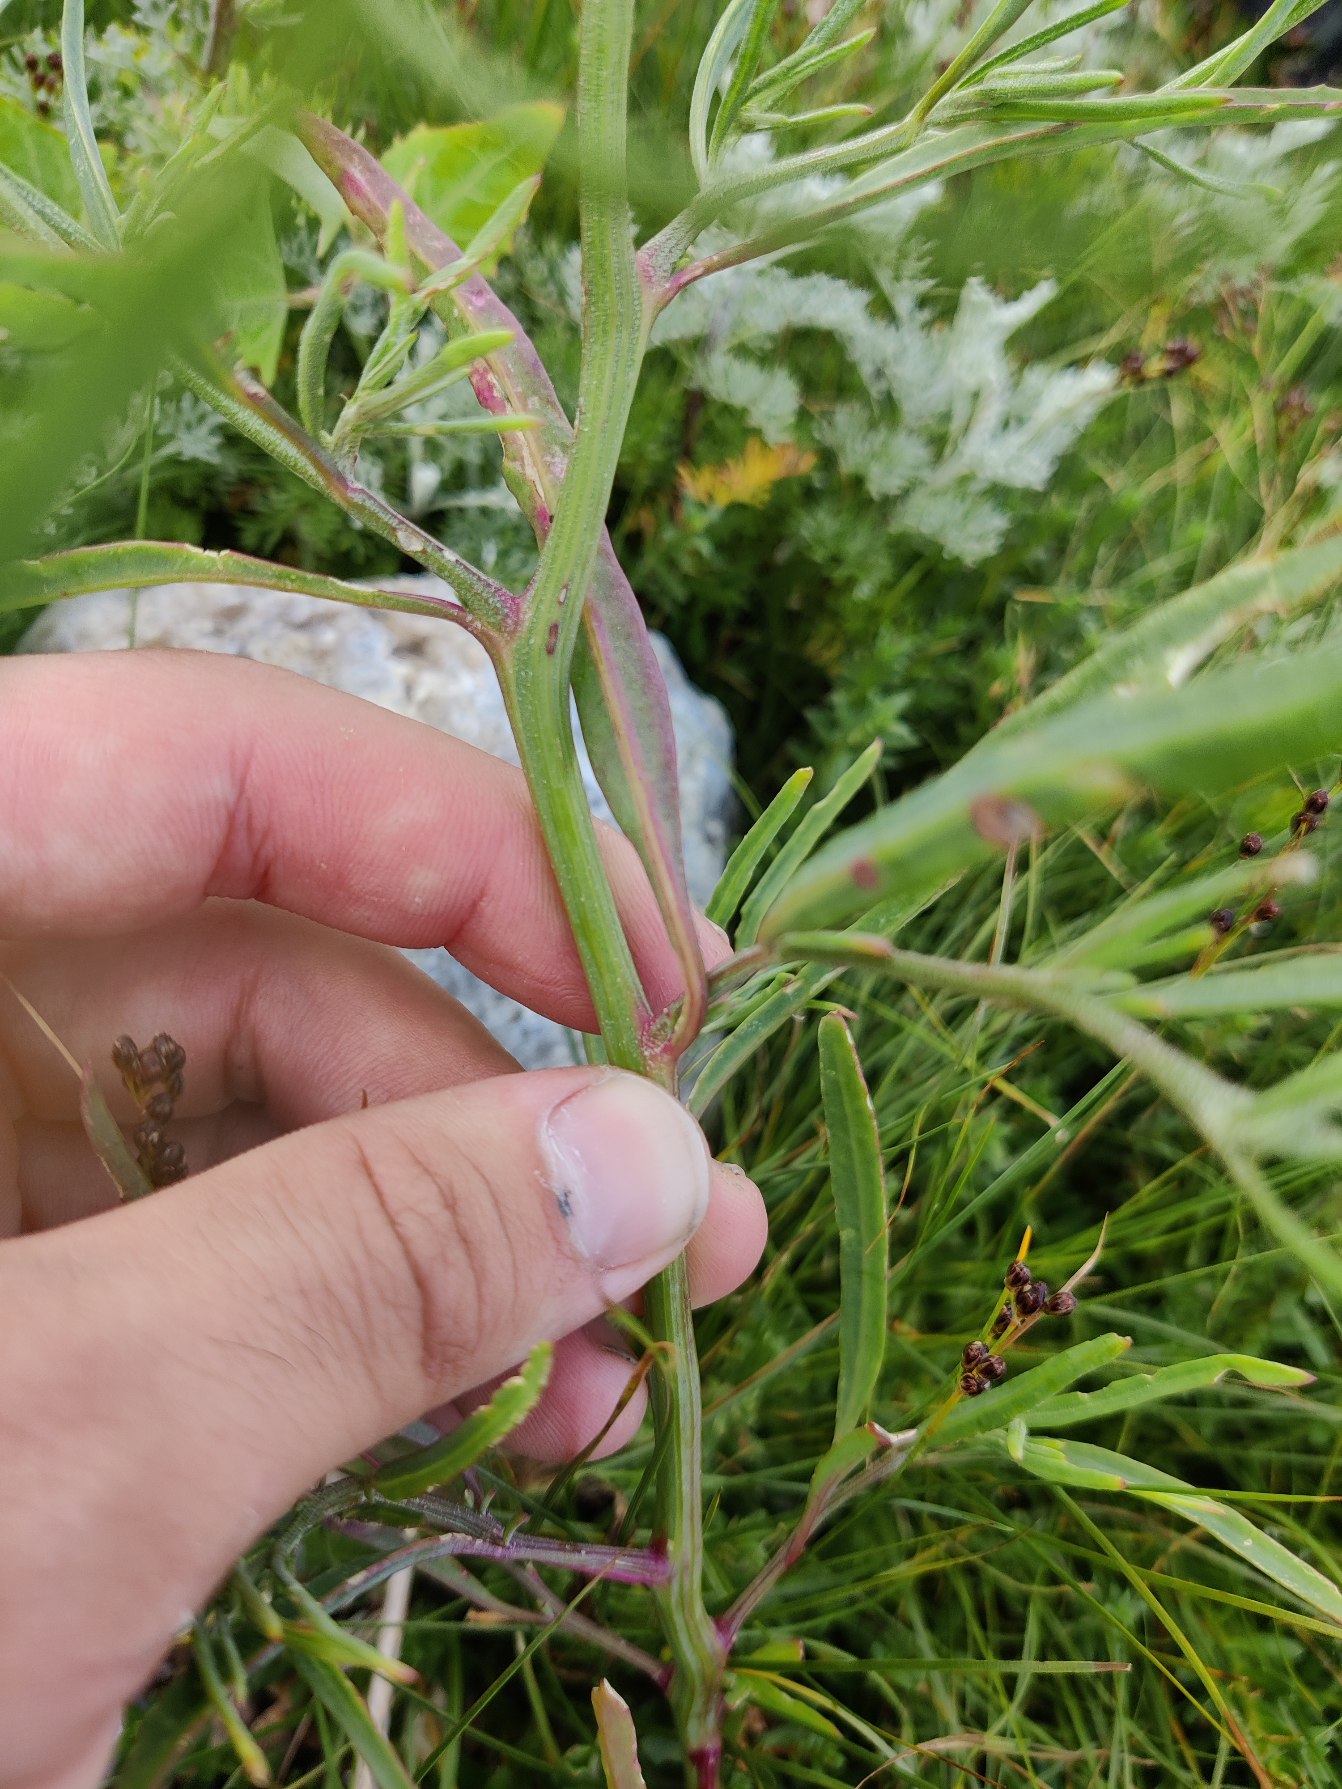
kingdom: Plantae
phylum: Tracheophyta
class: Magnoliopsida
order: Caryophyllales
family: Amaranthaceae
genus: Atriplex
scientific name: Atriplex littoralis
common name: Strand-mælde
